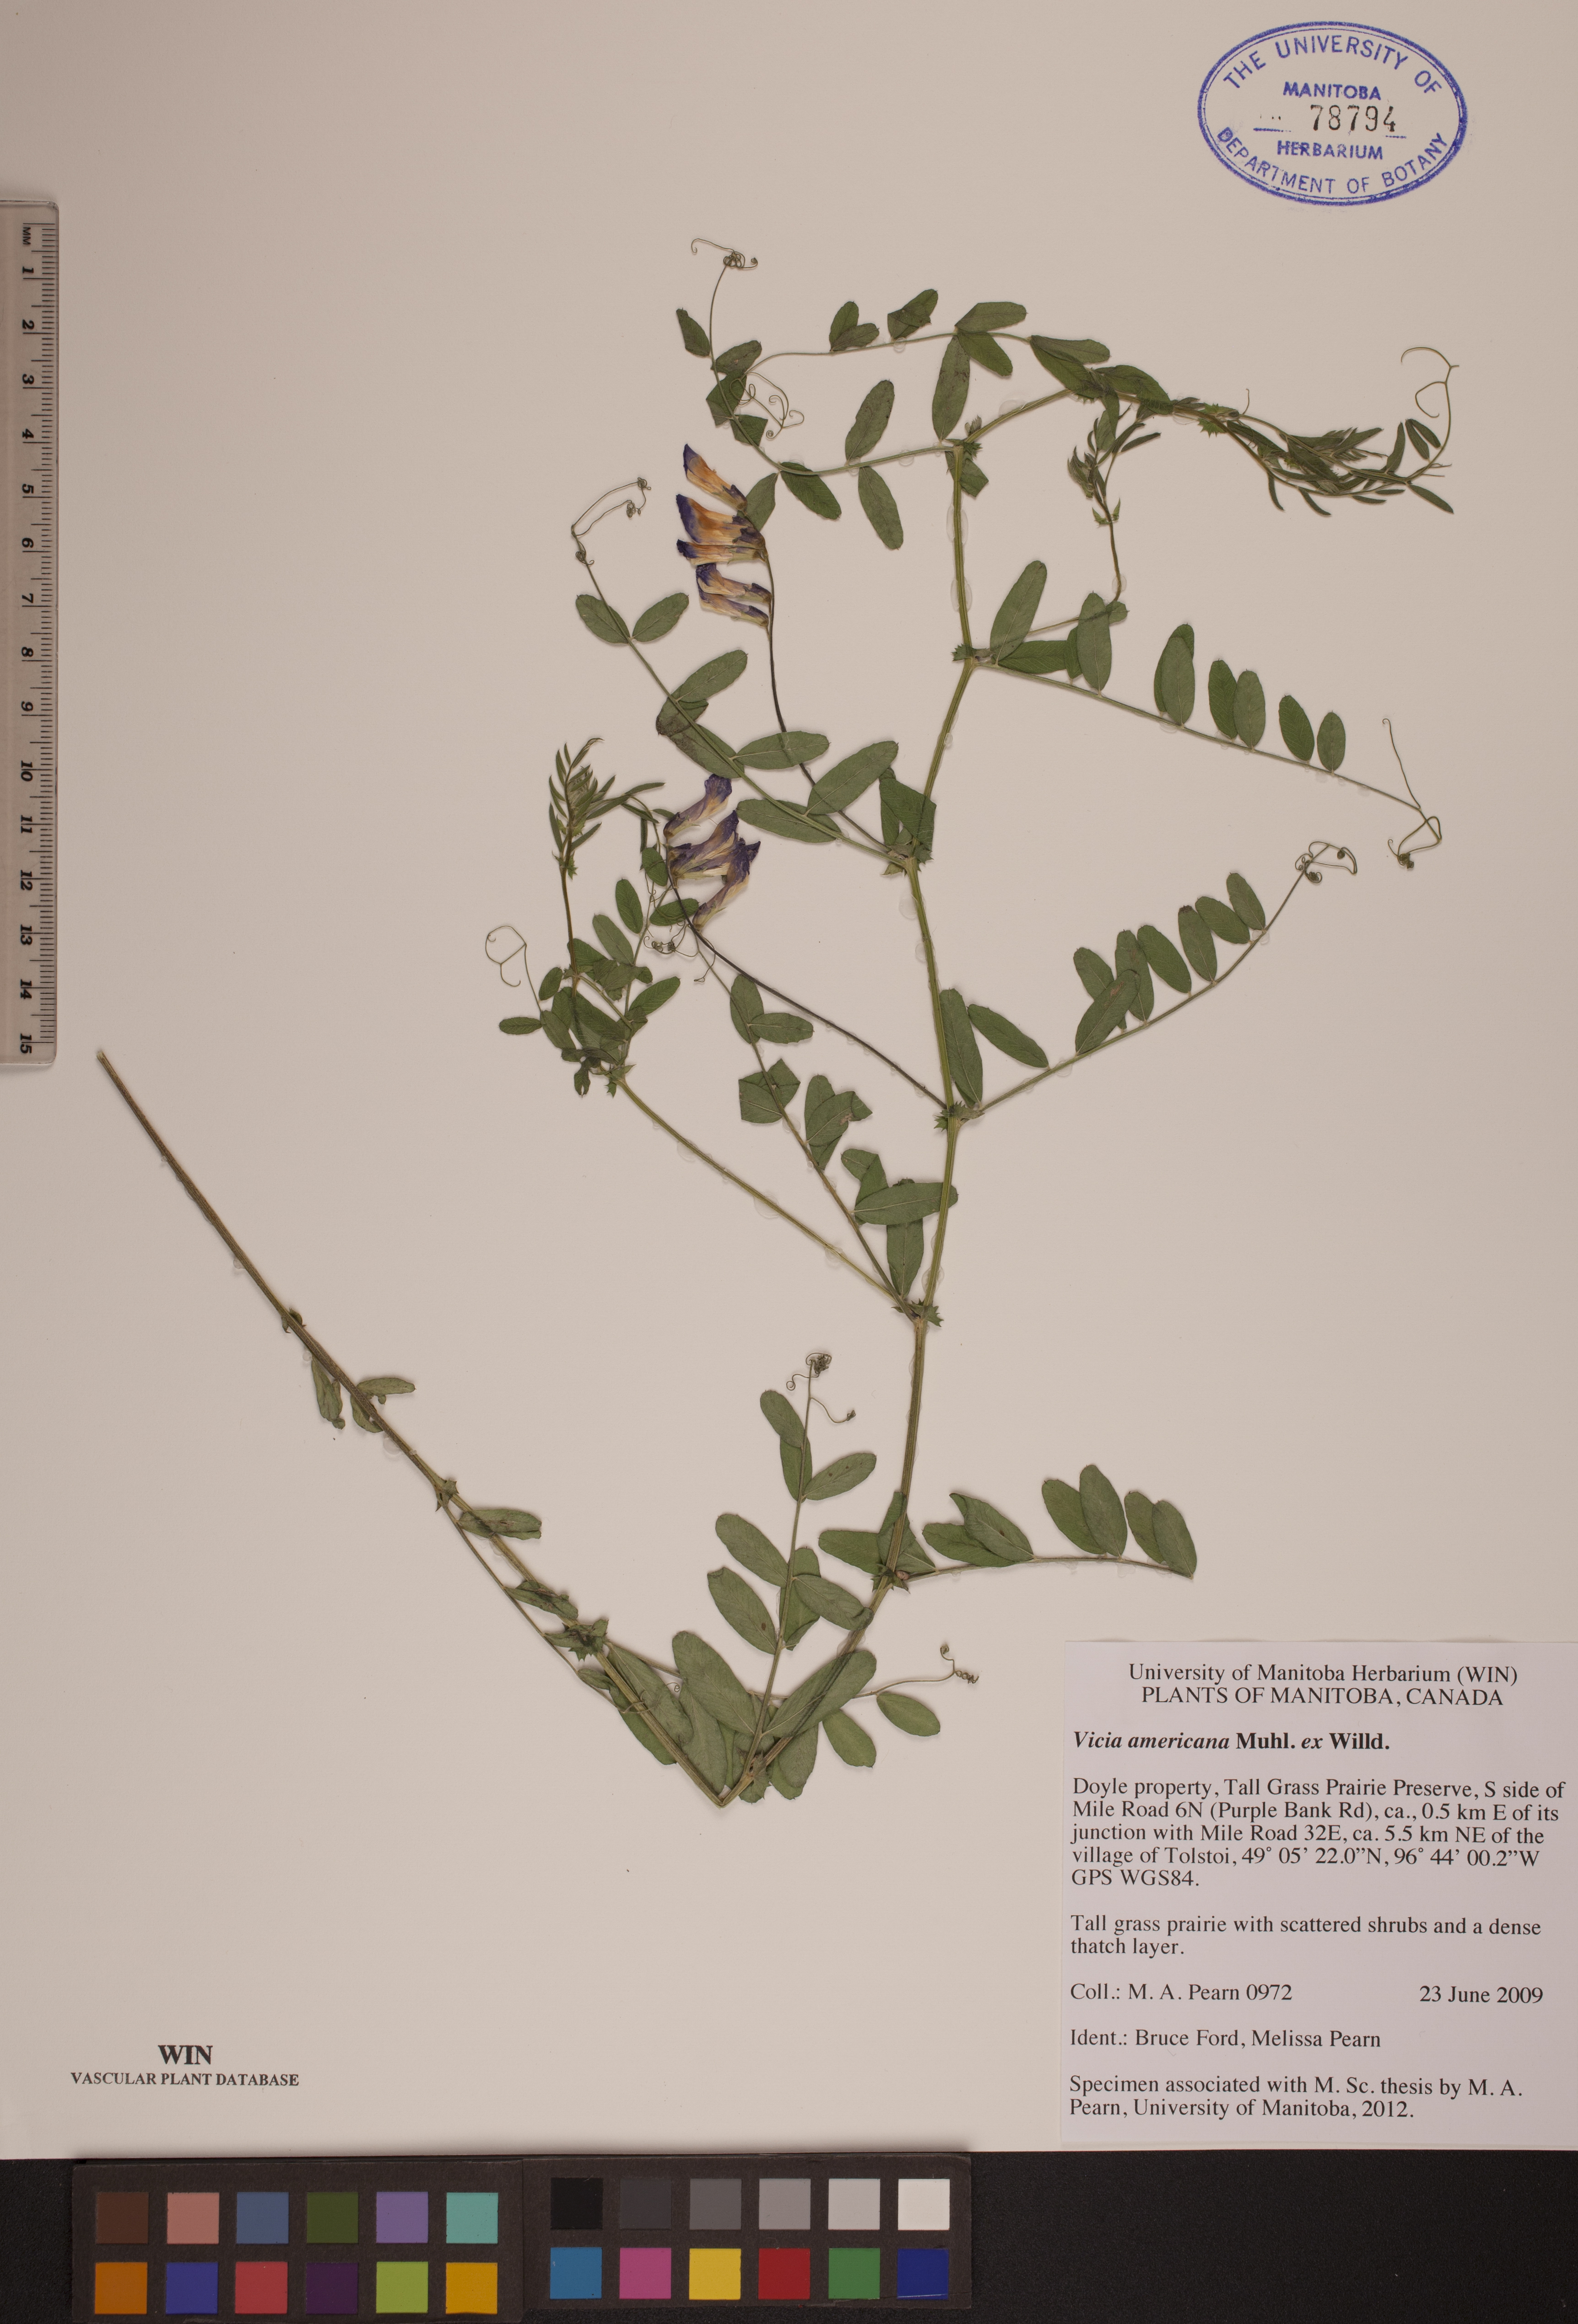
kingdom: Plantae
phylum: Tracheophyta
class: Magnoliopsida
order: Fabales
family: Fabaceae
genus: Vicia
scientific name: Vicia americana
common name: American vetch
